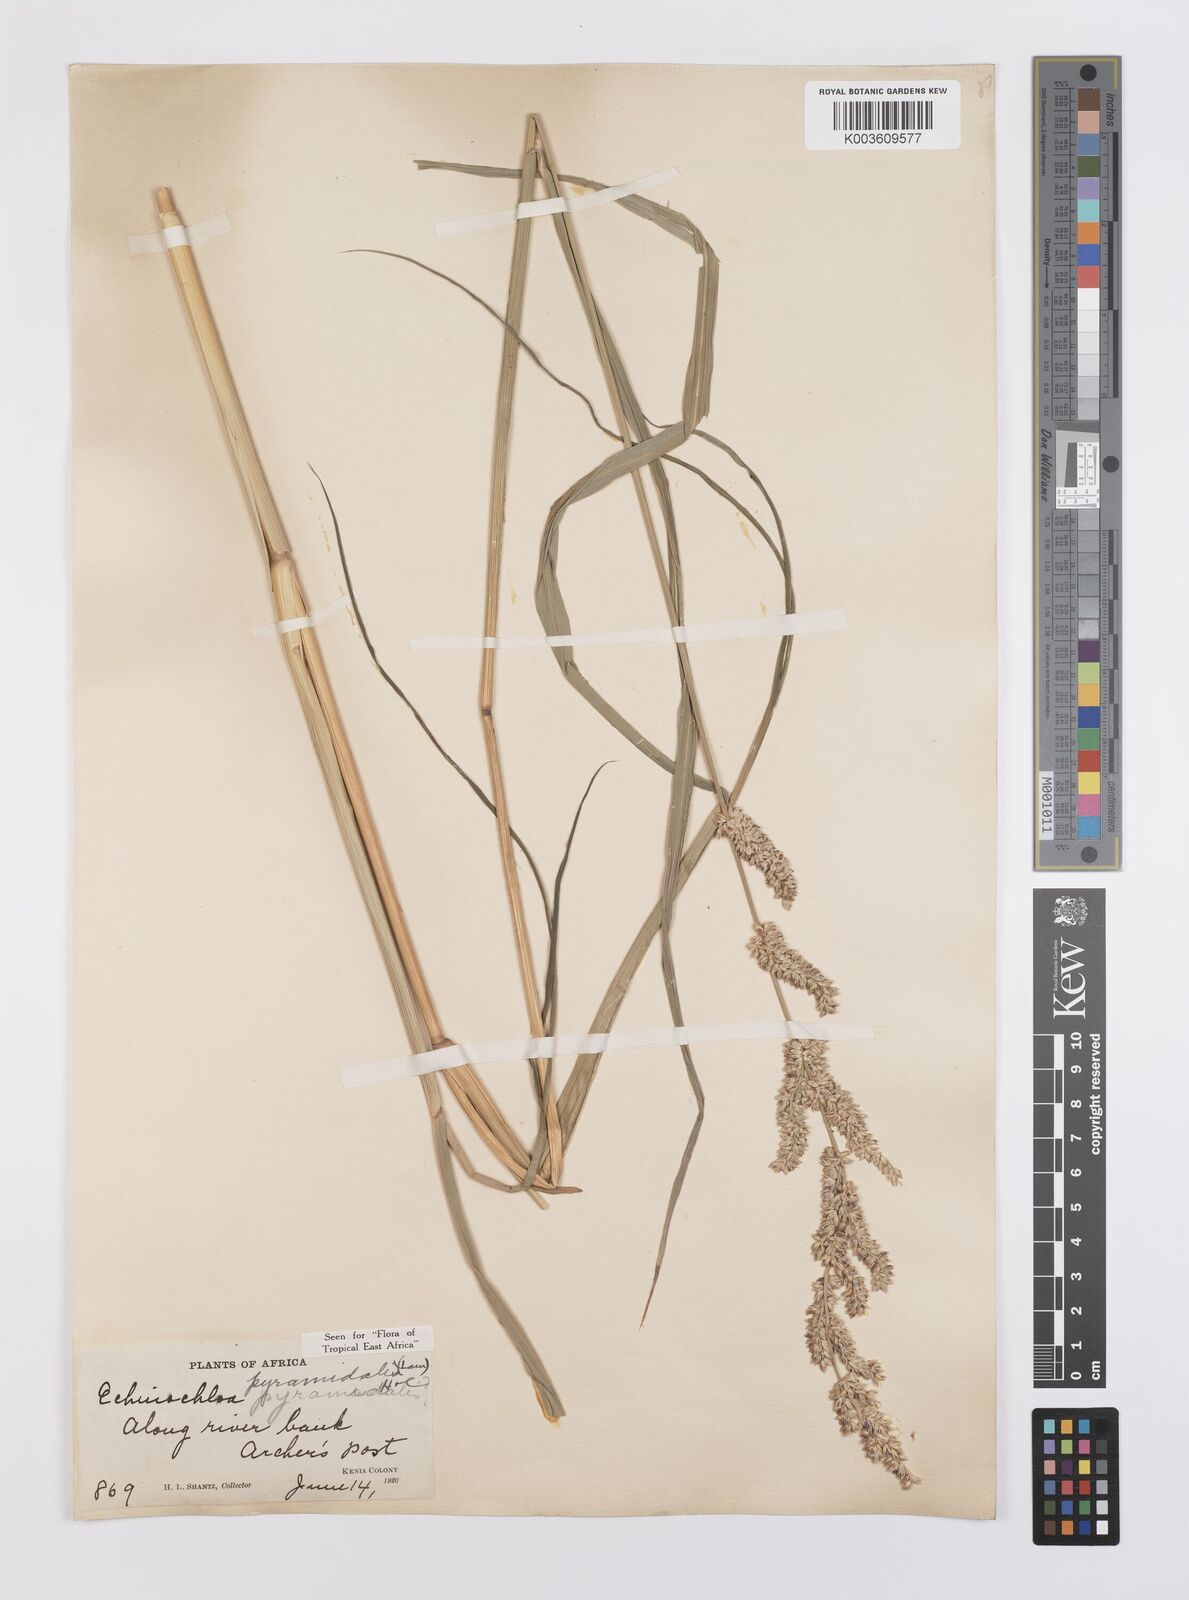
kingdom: Plantae
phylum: Tracheophyta
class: Liliopsida
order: Poales
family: Poaceae
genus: Echinochloa
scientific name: Echinochloa pyramidalis
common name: Antelope grass
